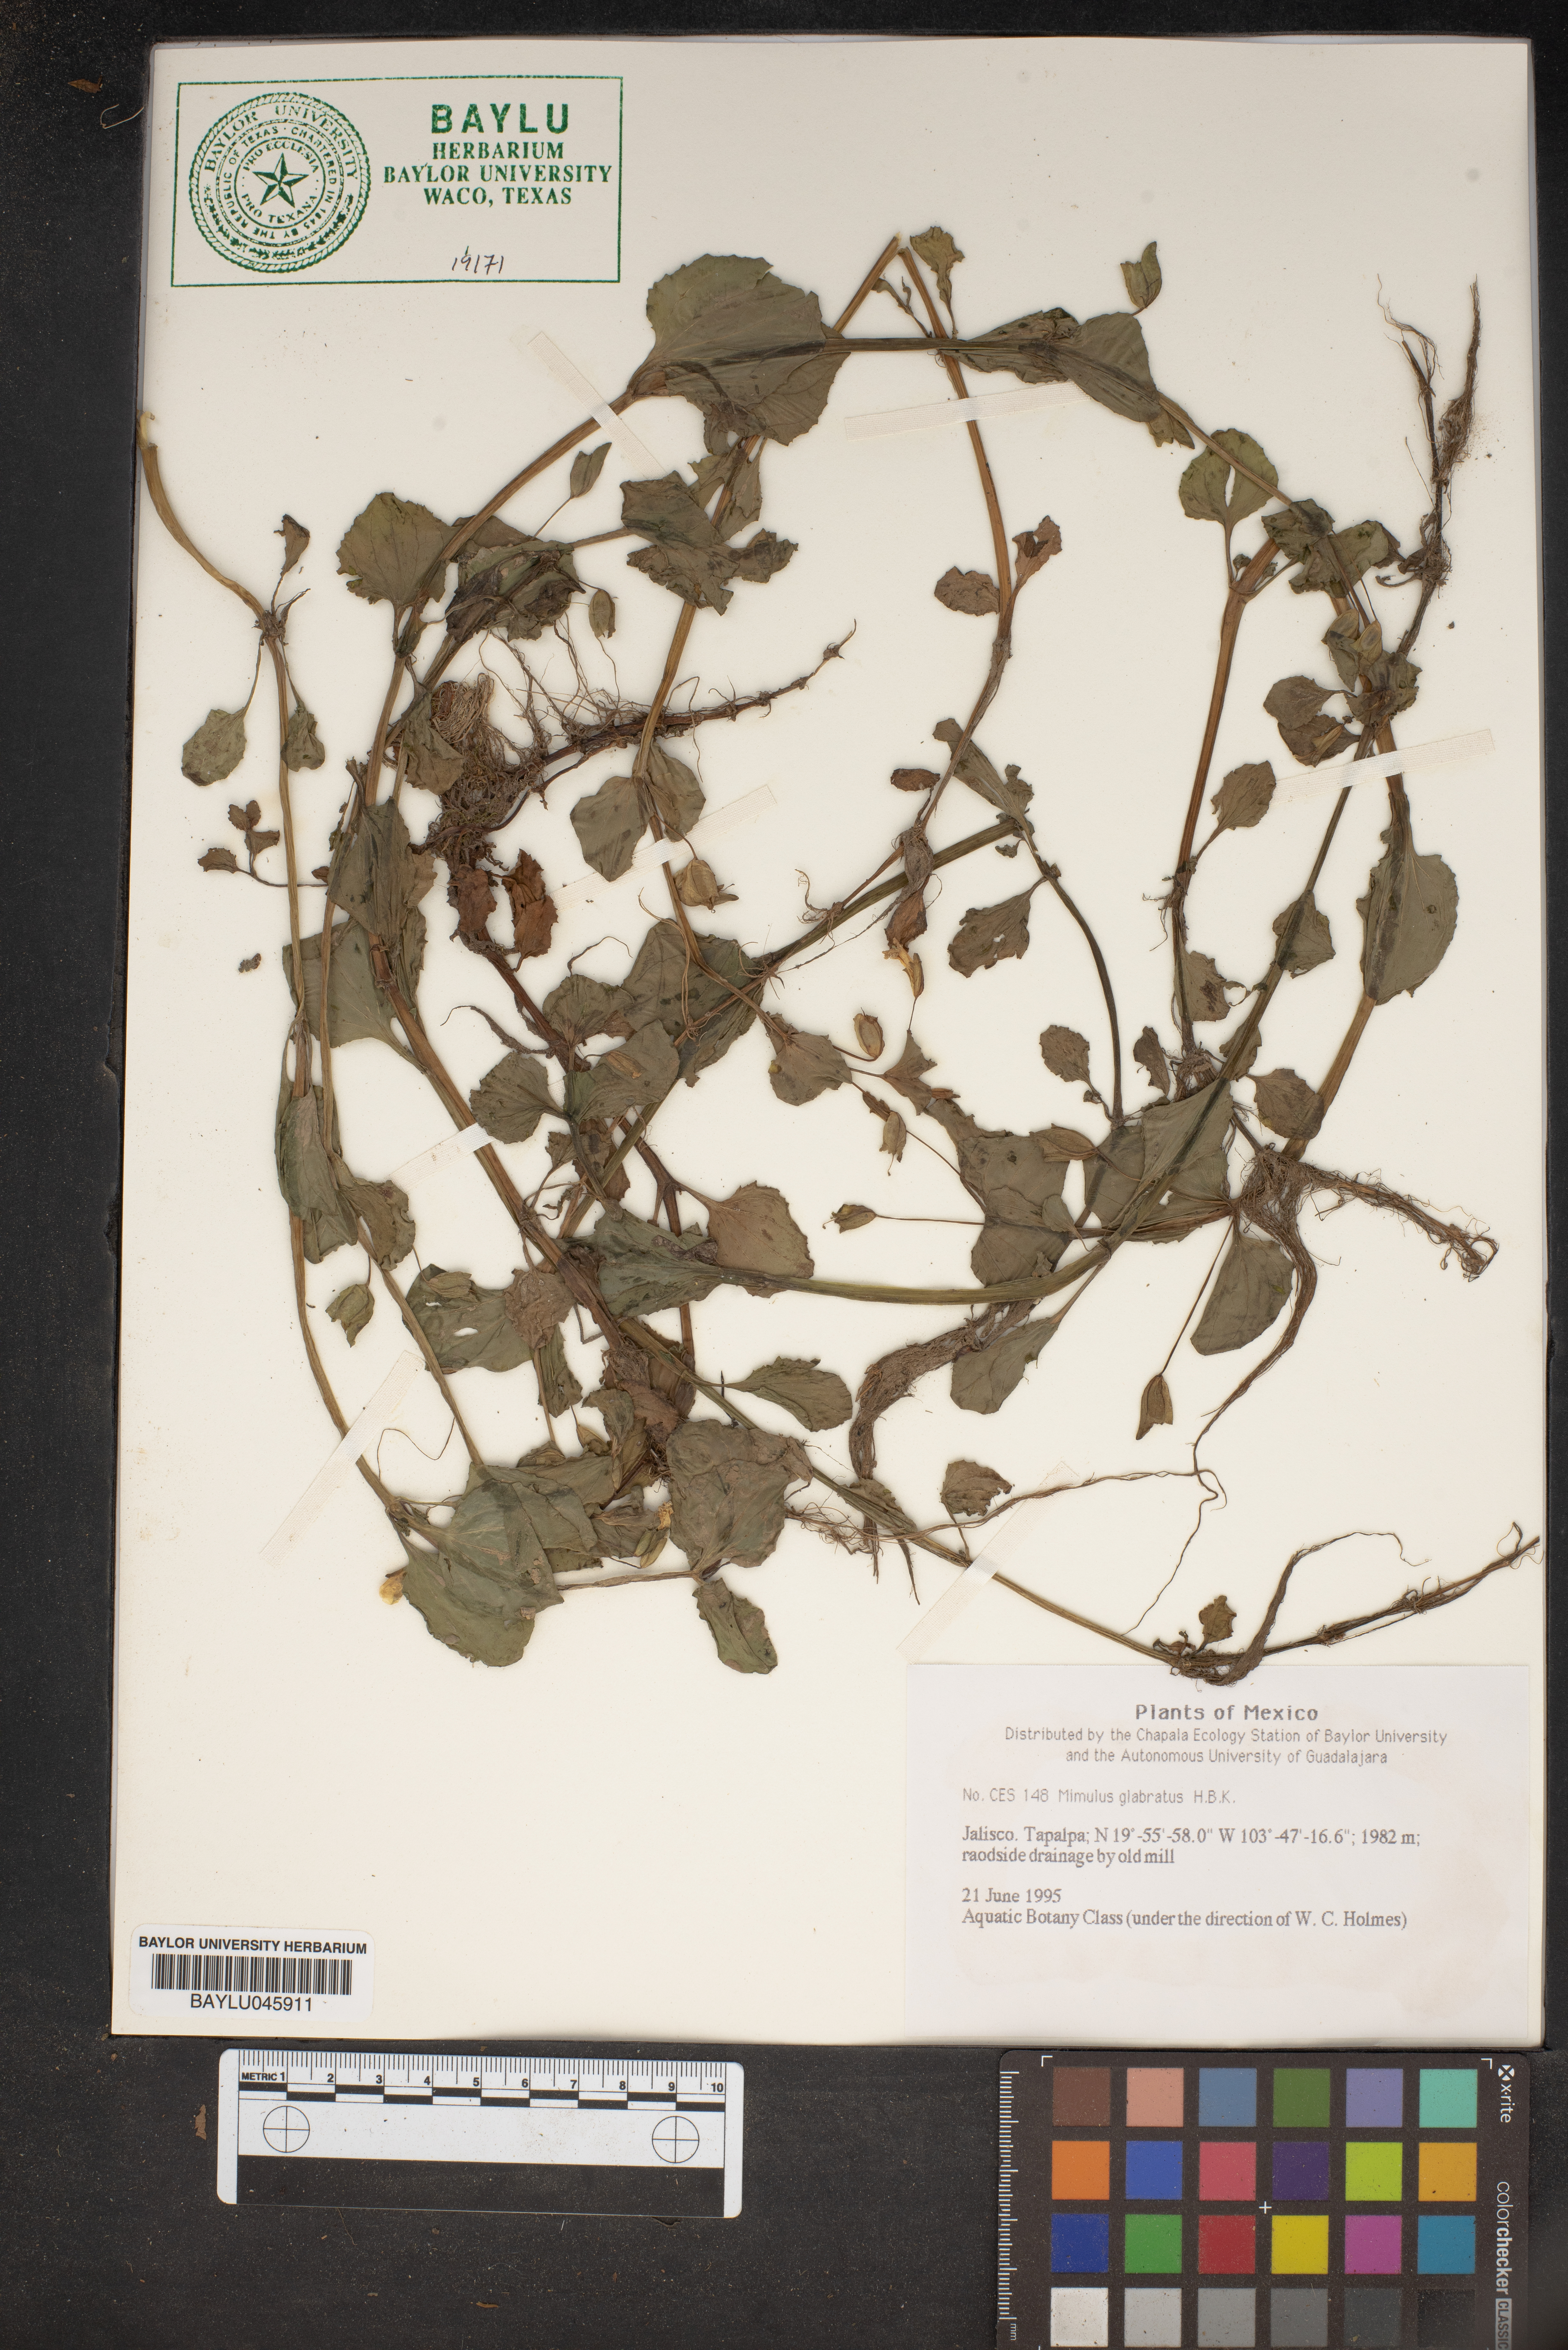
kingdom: Plantae
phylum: Tracheophyta
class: Magnoliopsida
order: Lamiales
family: Phrymaceae
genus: Erythranthe
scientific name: Erythranthe glabrata
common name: Round-leaved monkeyflower
